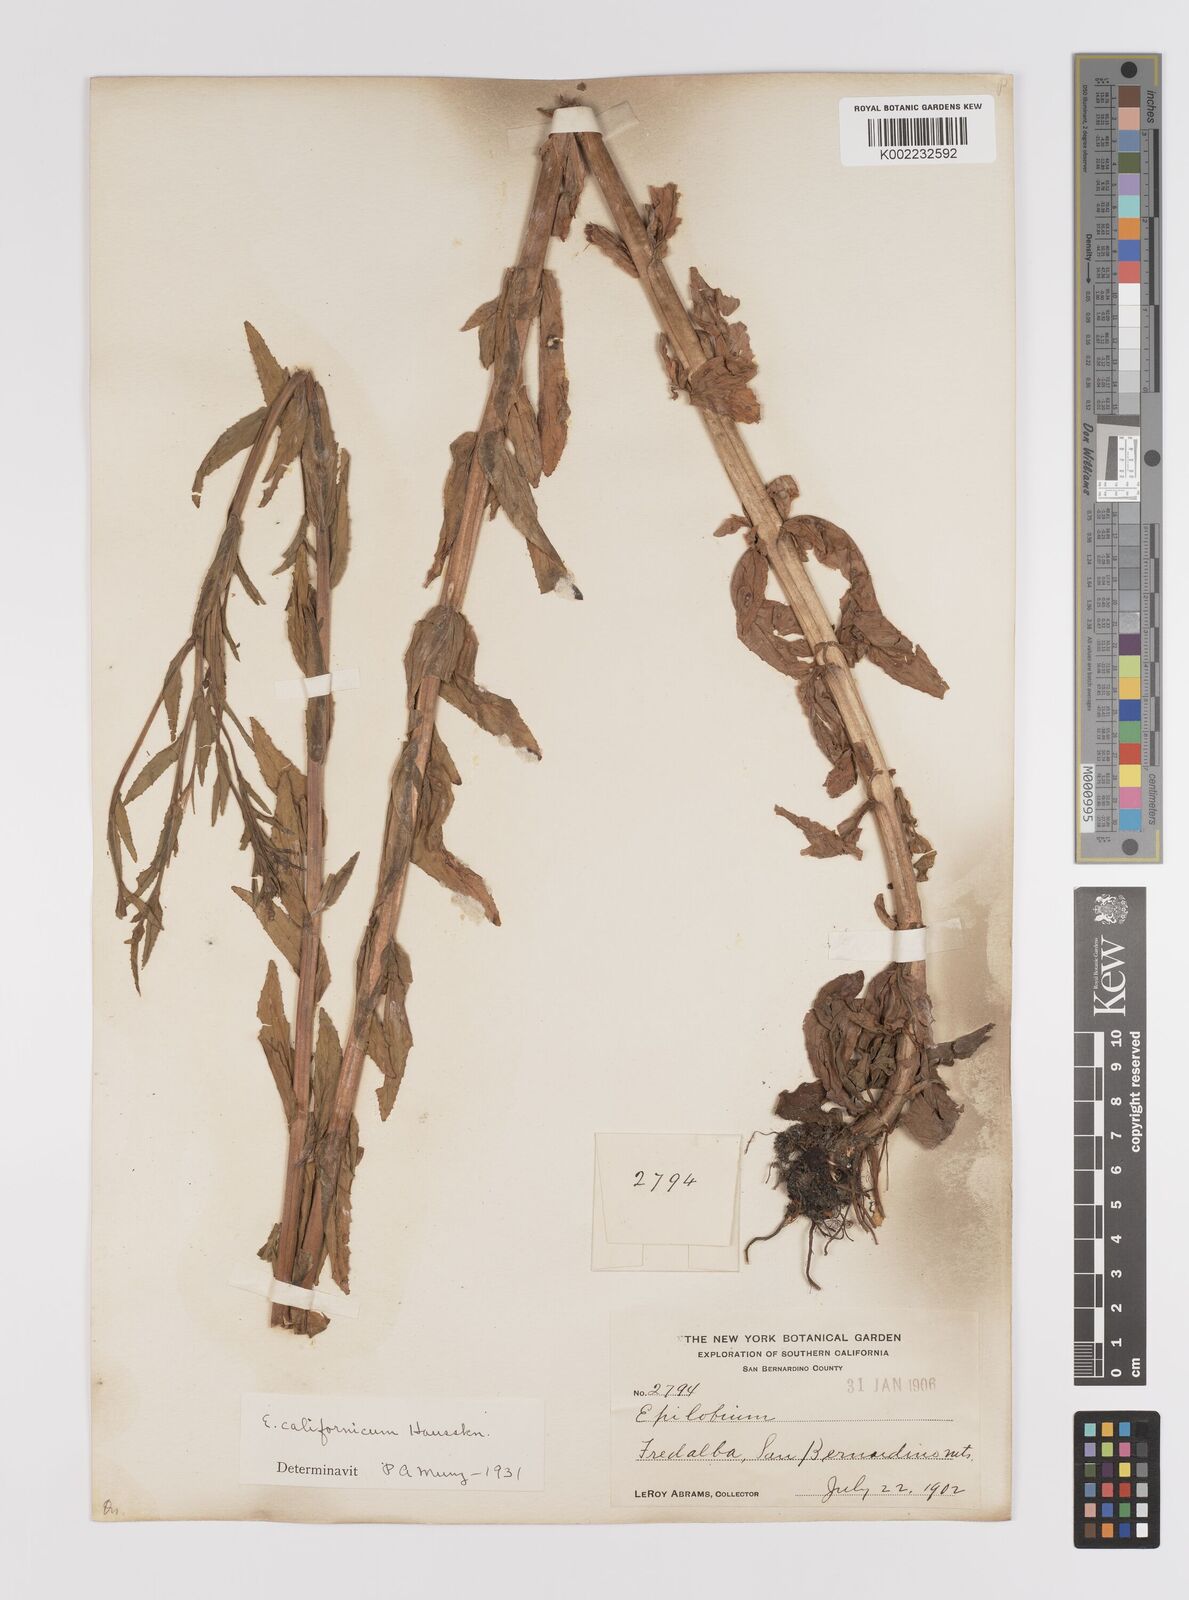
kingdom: Plantae
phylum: Tracheophyta
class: Magnoliopsida
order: Myrtales
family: Onagraceae
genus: Epilobium
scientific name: Epilobium ciliatum
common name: American willowherb
